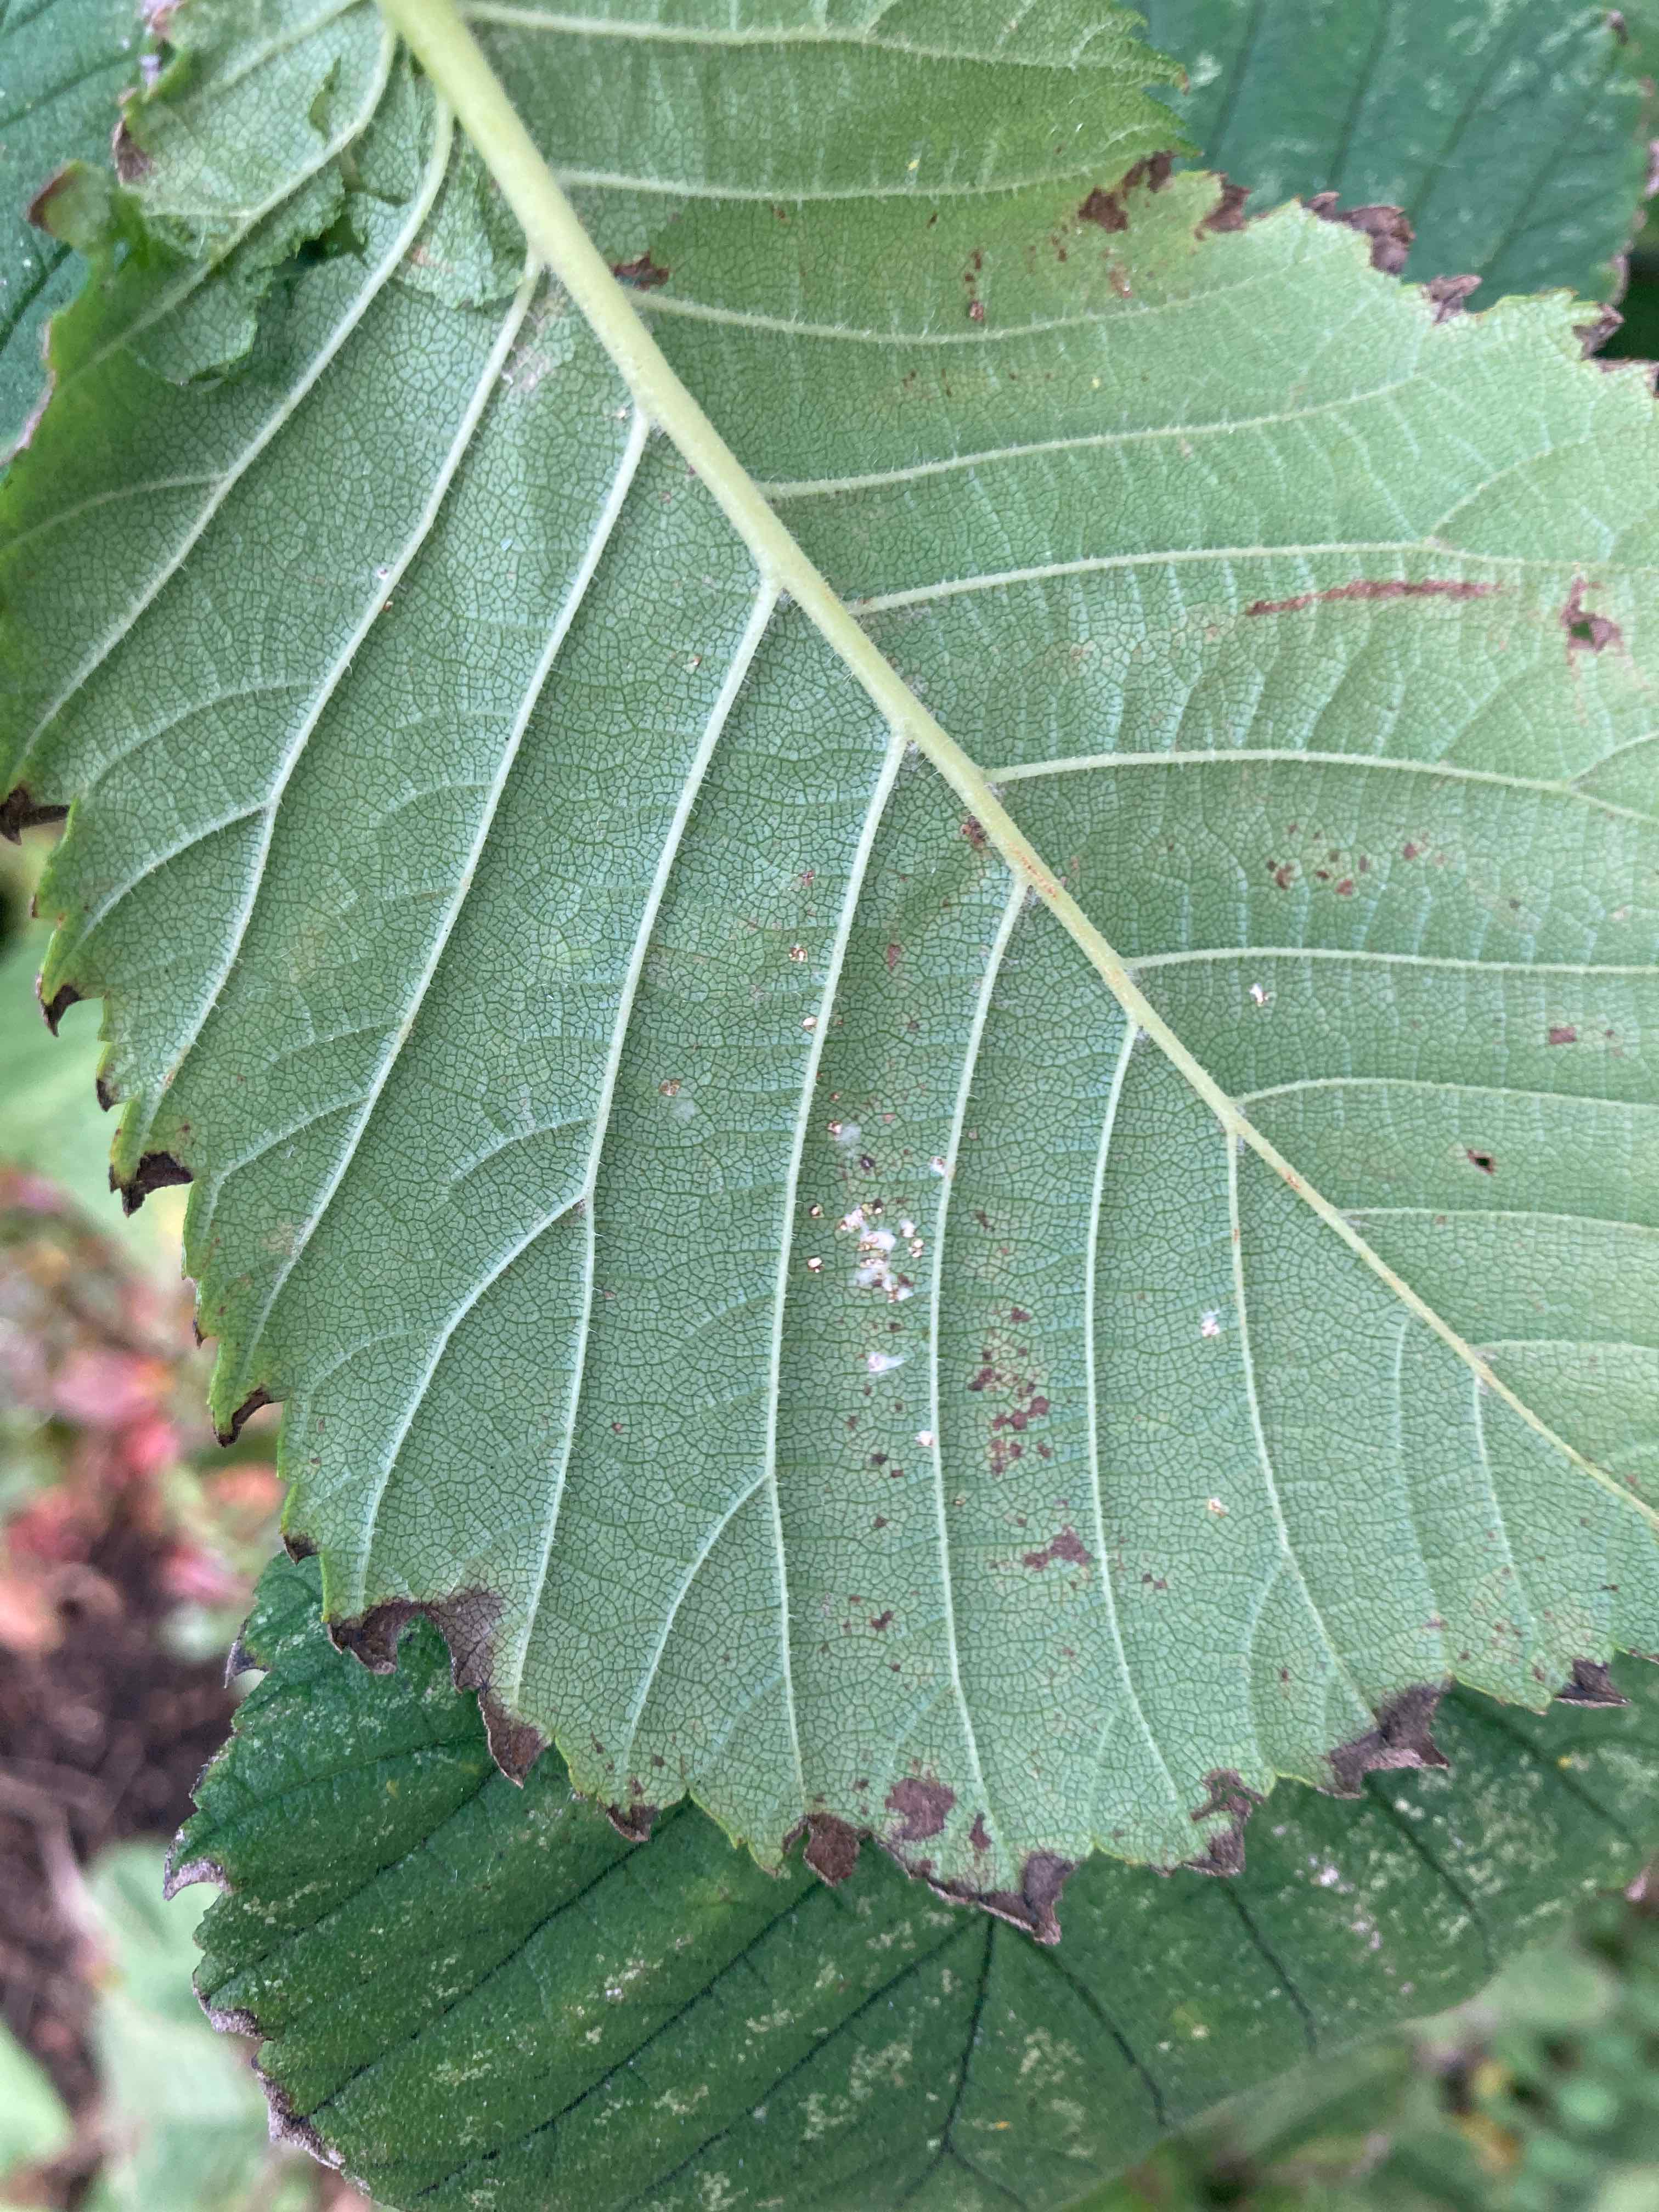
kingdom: Fungi
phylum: Ascomycota
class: Dothideomycetes
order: Mycosphaerellales
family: Mycosphaerellaceae
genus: Mycosphaerella
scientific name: Mycosphaerella ulmi
